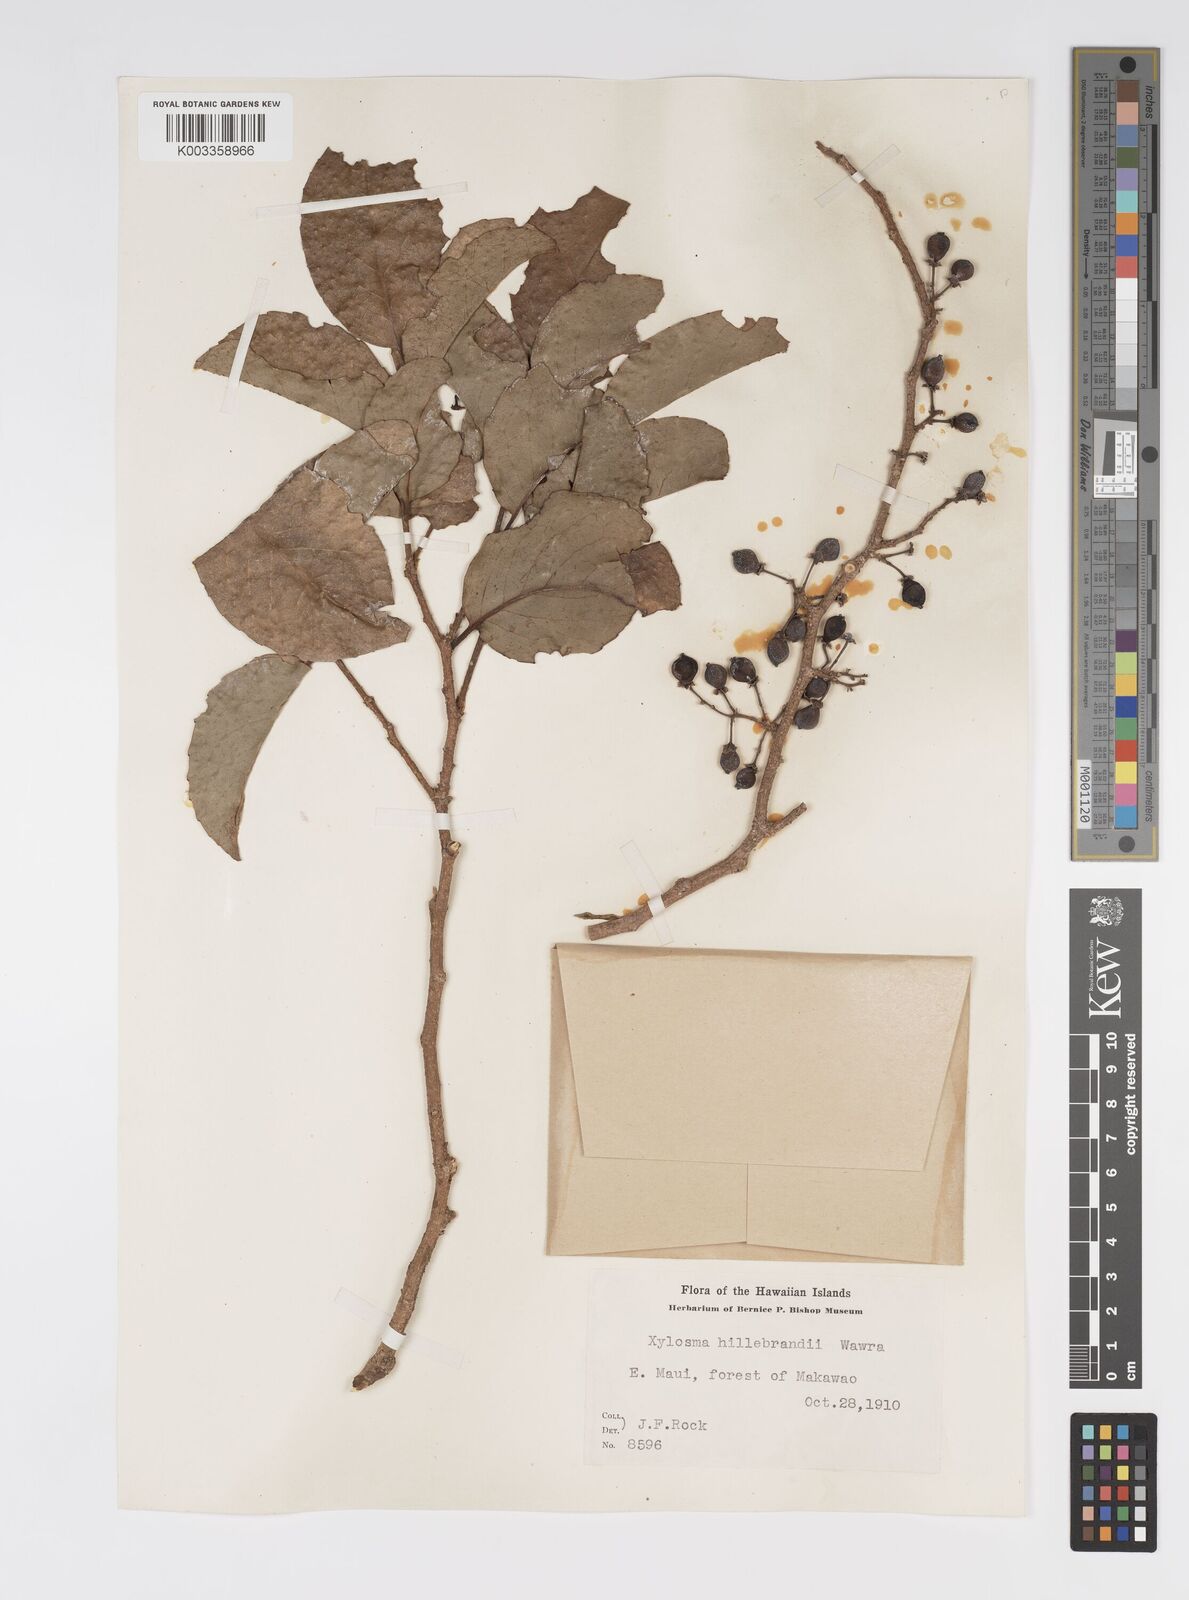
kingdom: Plantae
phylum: Tracheophyta
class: Magnoliopsida
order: Malpighiales
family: Salicaceae
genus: Xylosma
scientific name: Xylosma hawaiense
